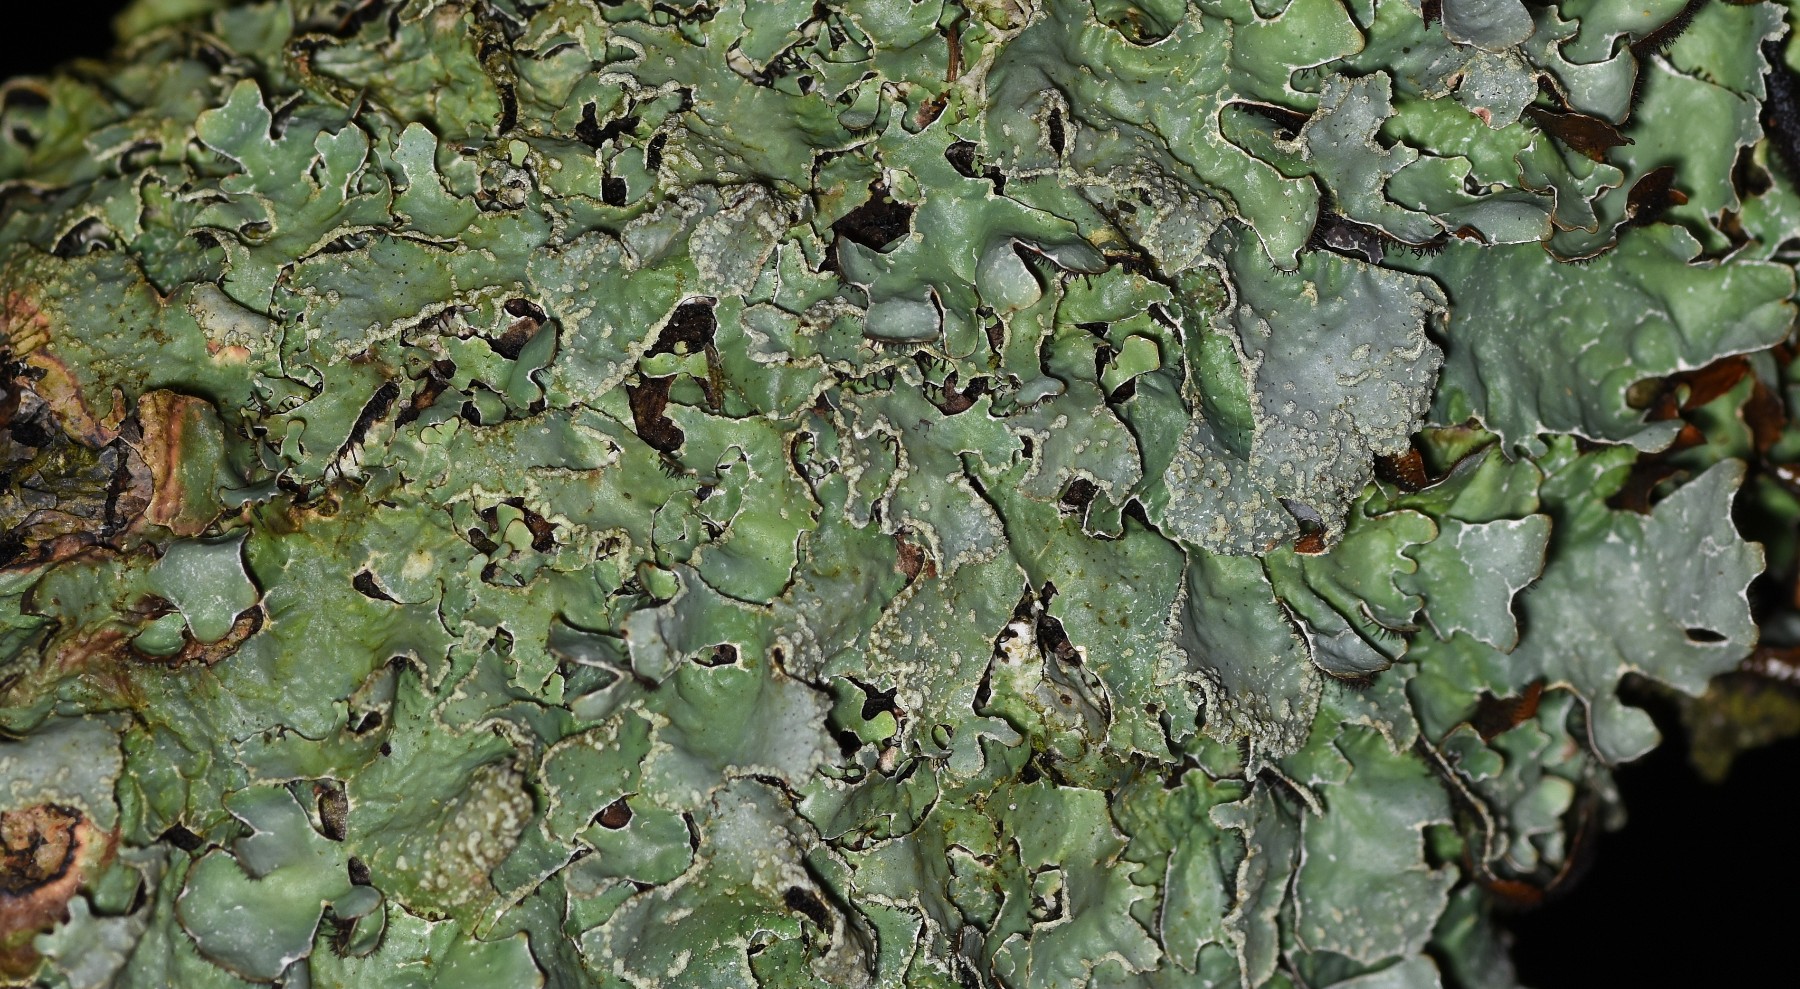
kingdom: Fungi
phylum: Ascomycota
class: Lecanoromycetes
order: Lecanorales
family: Parmeliaceae
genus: Parmelia
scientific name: Parmelia sulcata
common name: rynket skållav
